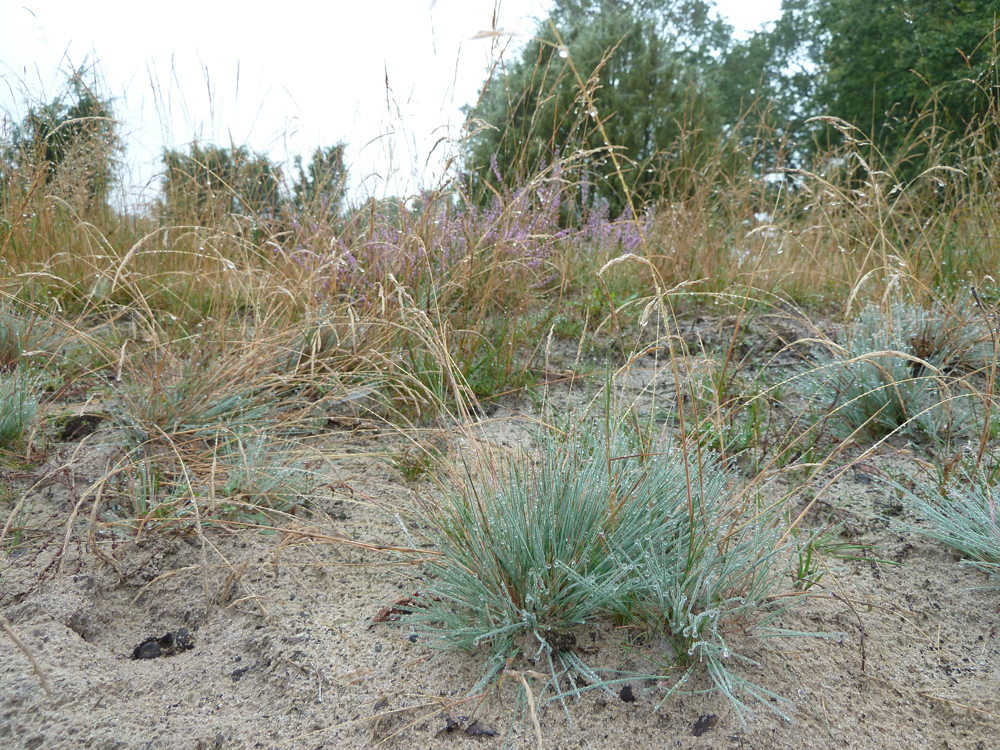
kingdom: Plantae
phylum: Tracheophyta
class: Liliopsida
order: Poales
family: Poaceae
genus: Corynephorus
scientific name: Corynephorus canescens
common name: Grey hair-grass
